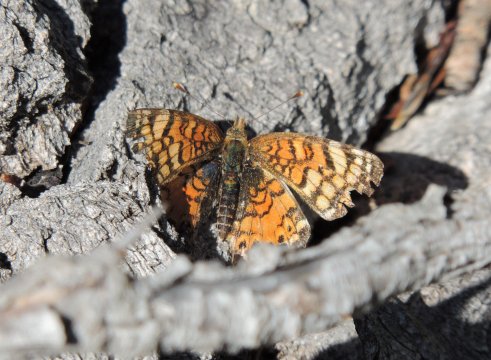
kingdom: Animalia
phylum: Arthropoda
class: Insecta
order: Lepidoptera
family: Nymphalidae
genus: Eresia
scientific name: Eresia aveyrona
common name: Mylitta Crescent
